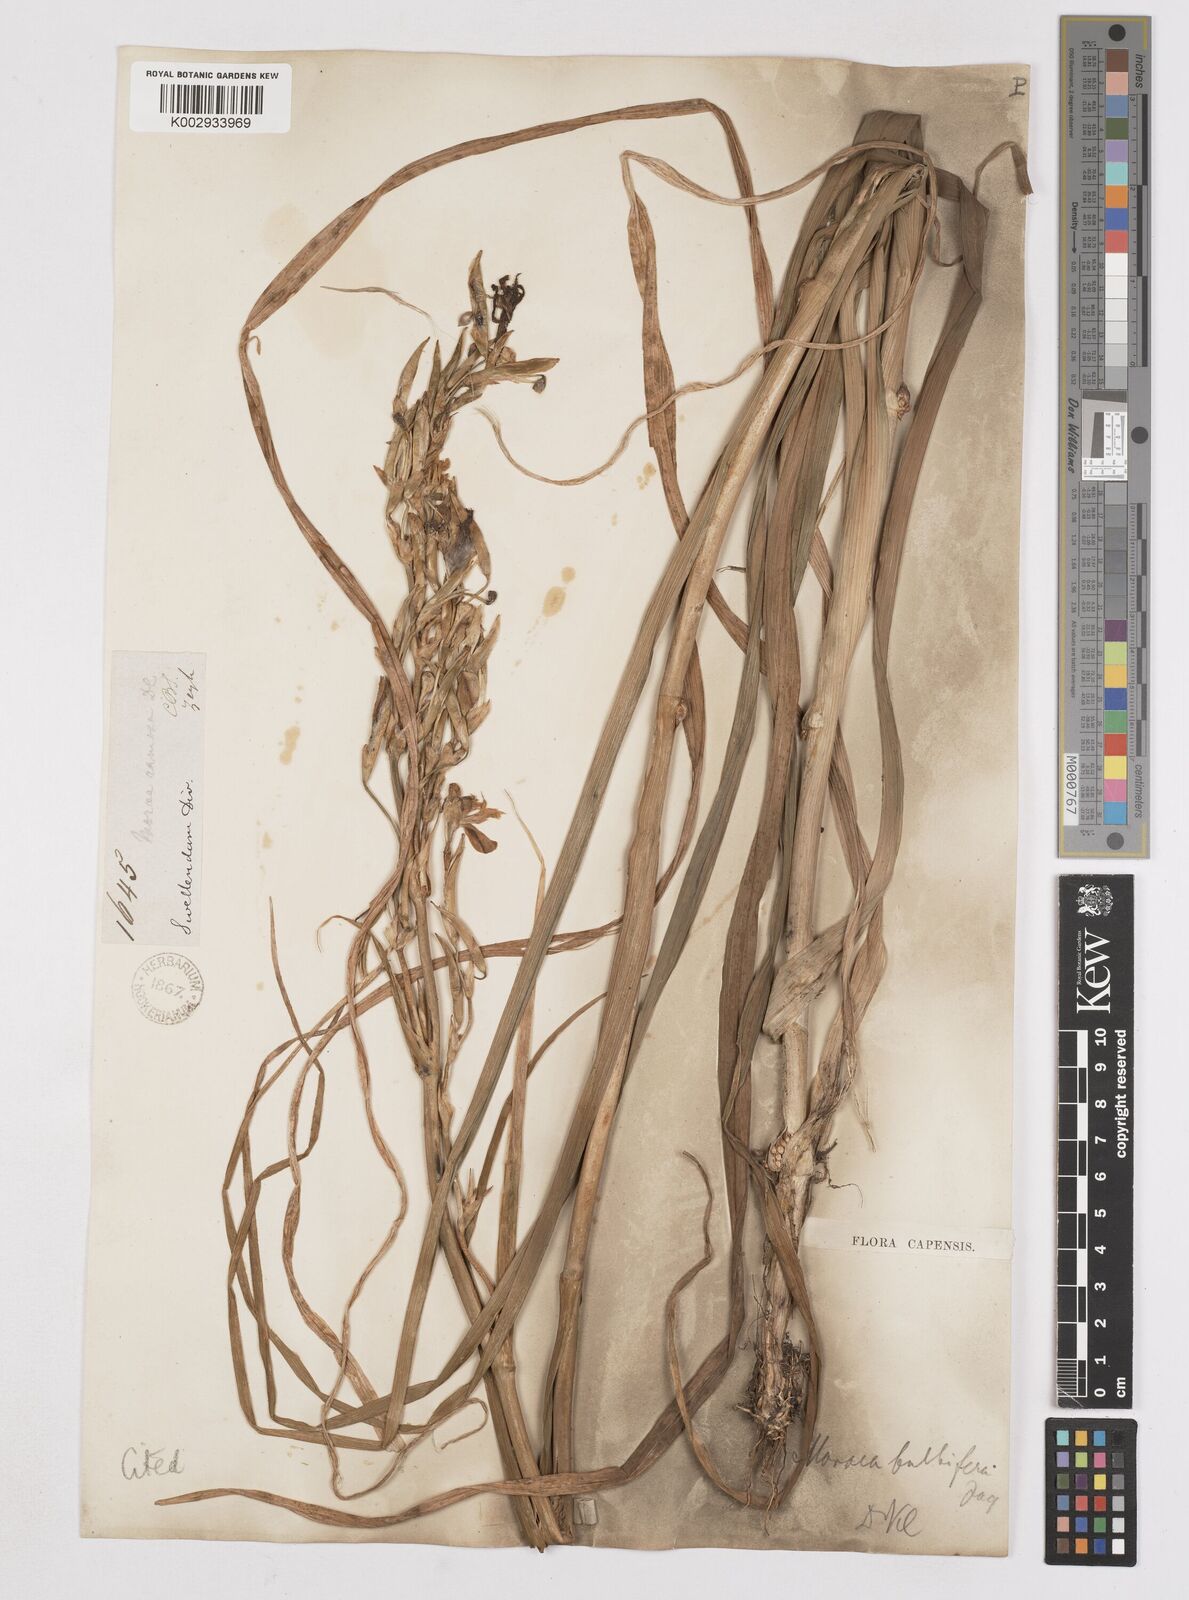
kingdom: Plantae
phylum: Tracheophyta
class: Liliopsida
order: Asparagales
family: Iridaceae
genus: Moraea
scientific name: Moraea ramosissima
